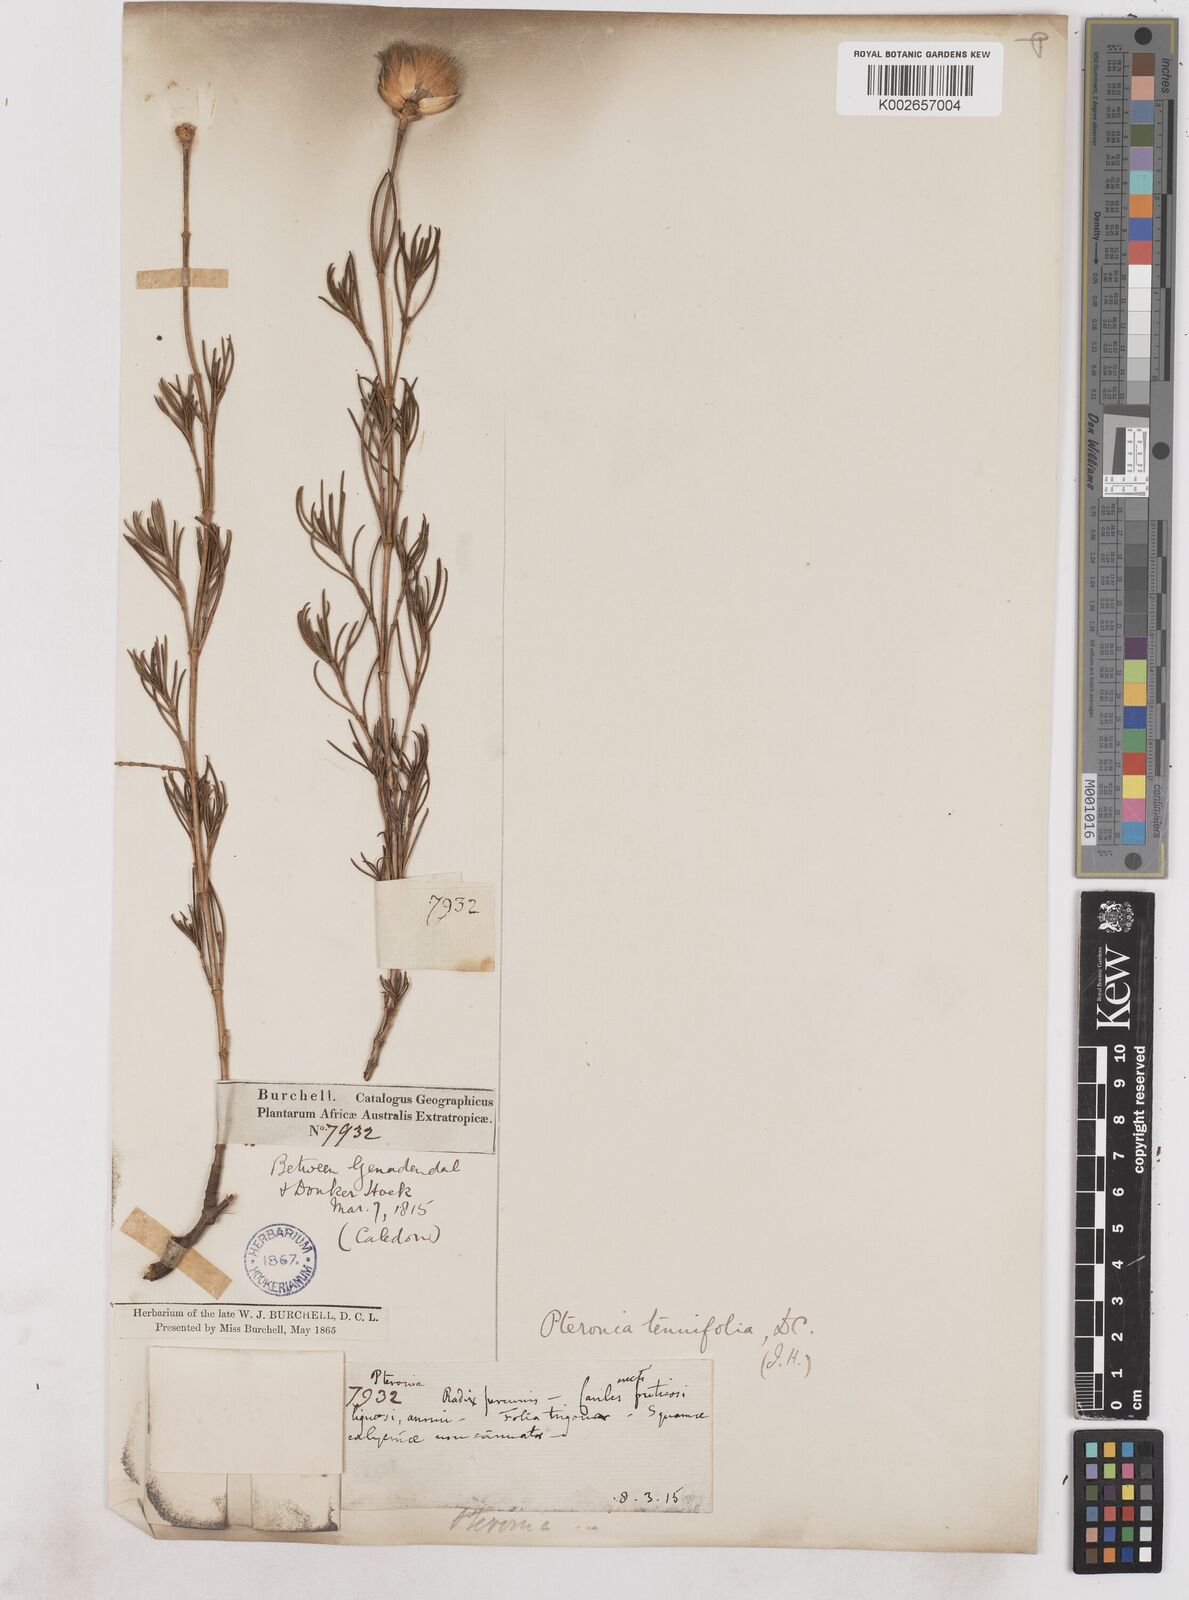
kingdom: Plantae
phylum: Tracheophyta
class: Magnoliopsida
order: Asterales
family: Asteraceae
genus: Pteronia
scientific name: Pteronia tenuifolia
